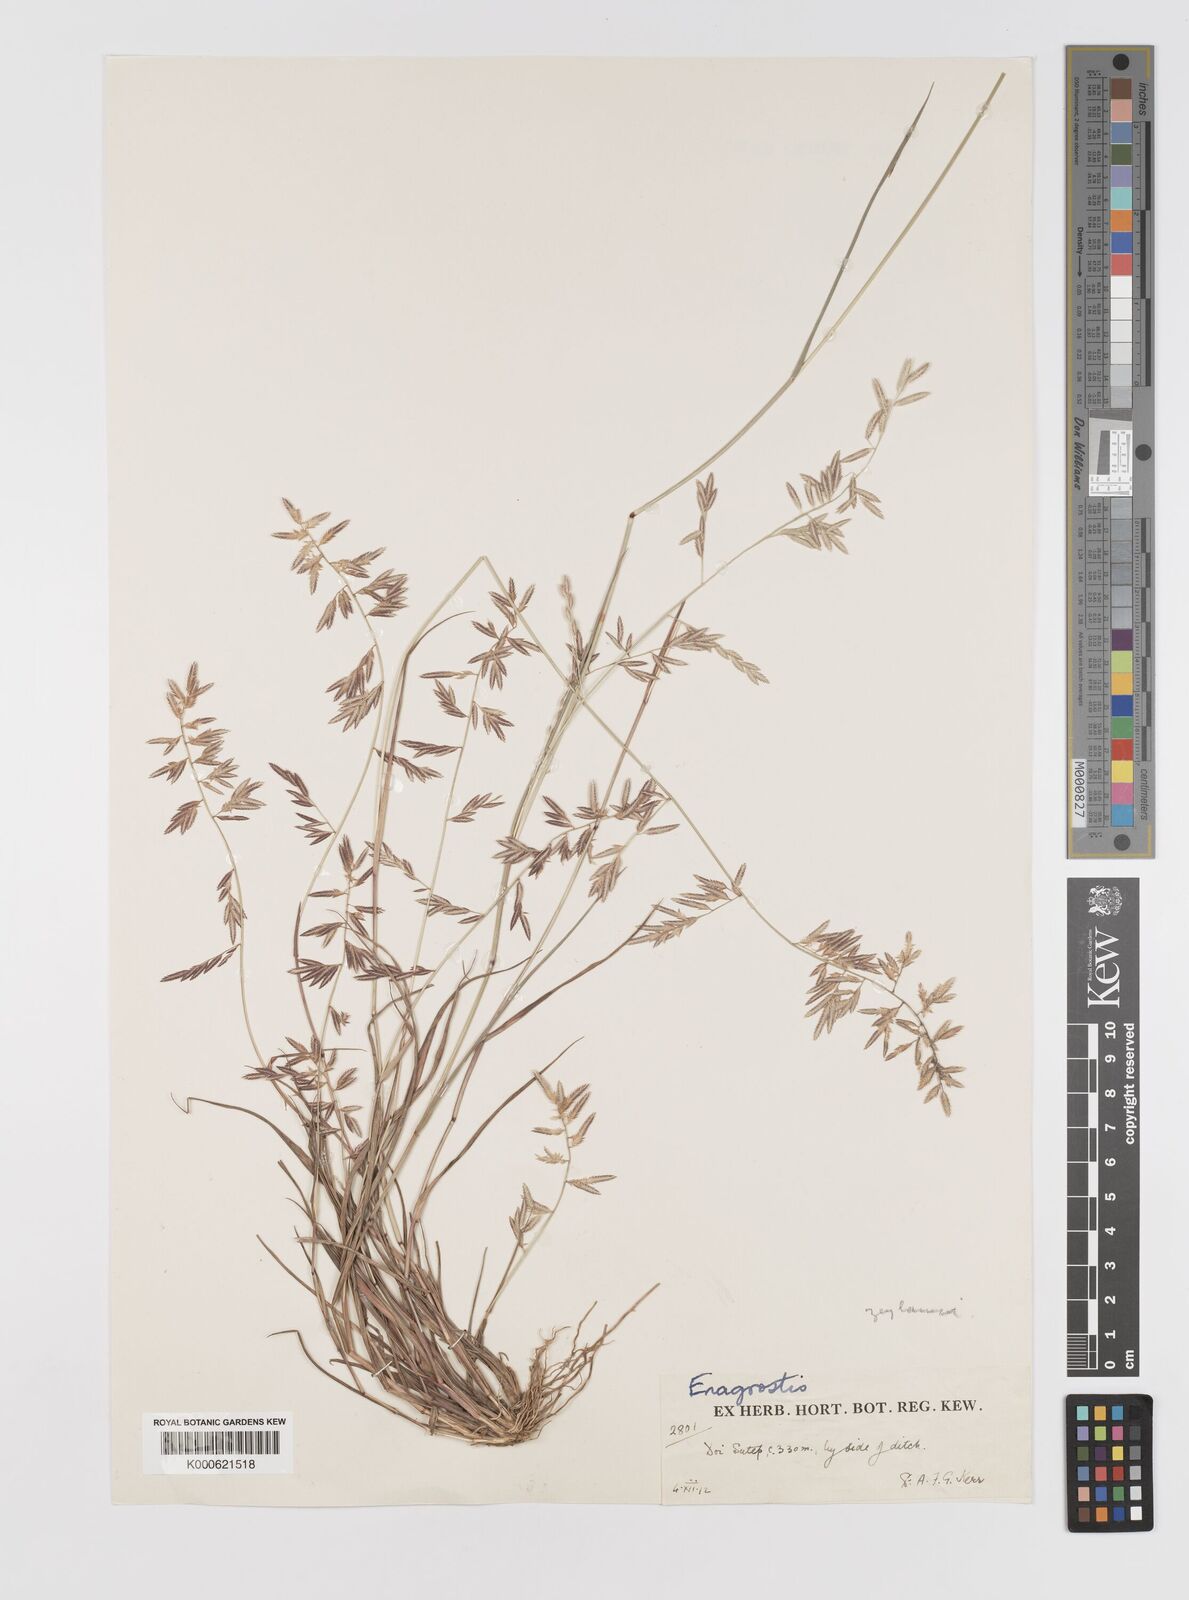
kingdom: Plantae
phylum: Tracheophyta
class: Liliopsida
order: Poales
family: Poaceae
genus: Eragrostis
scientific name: Eragrostis zeylanica
